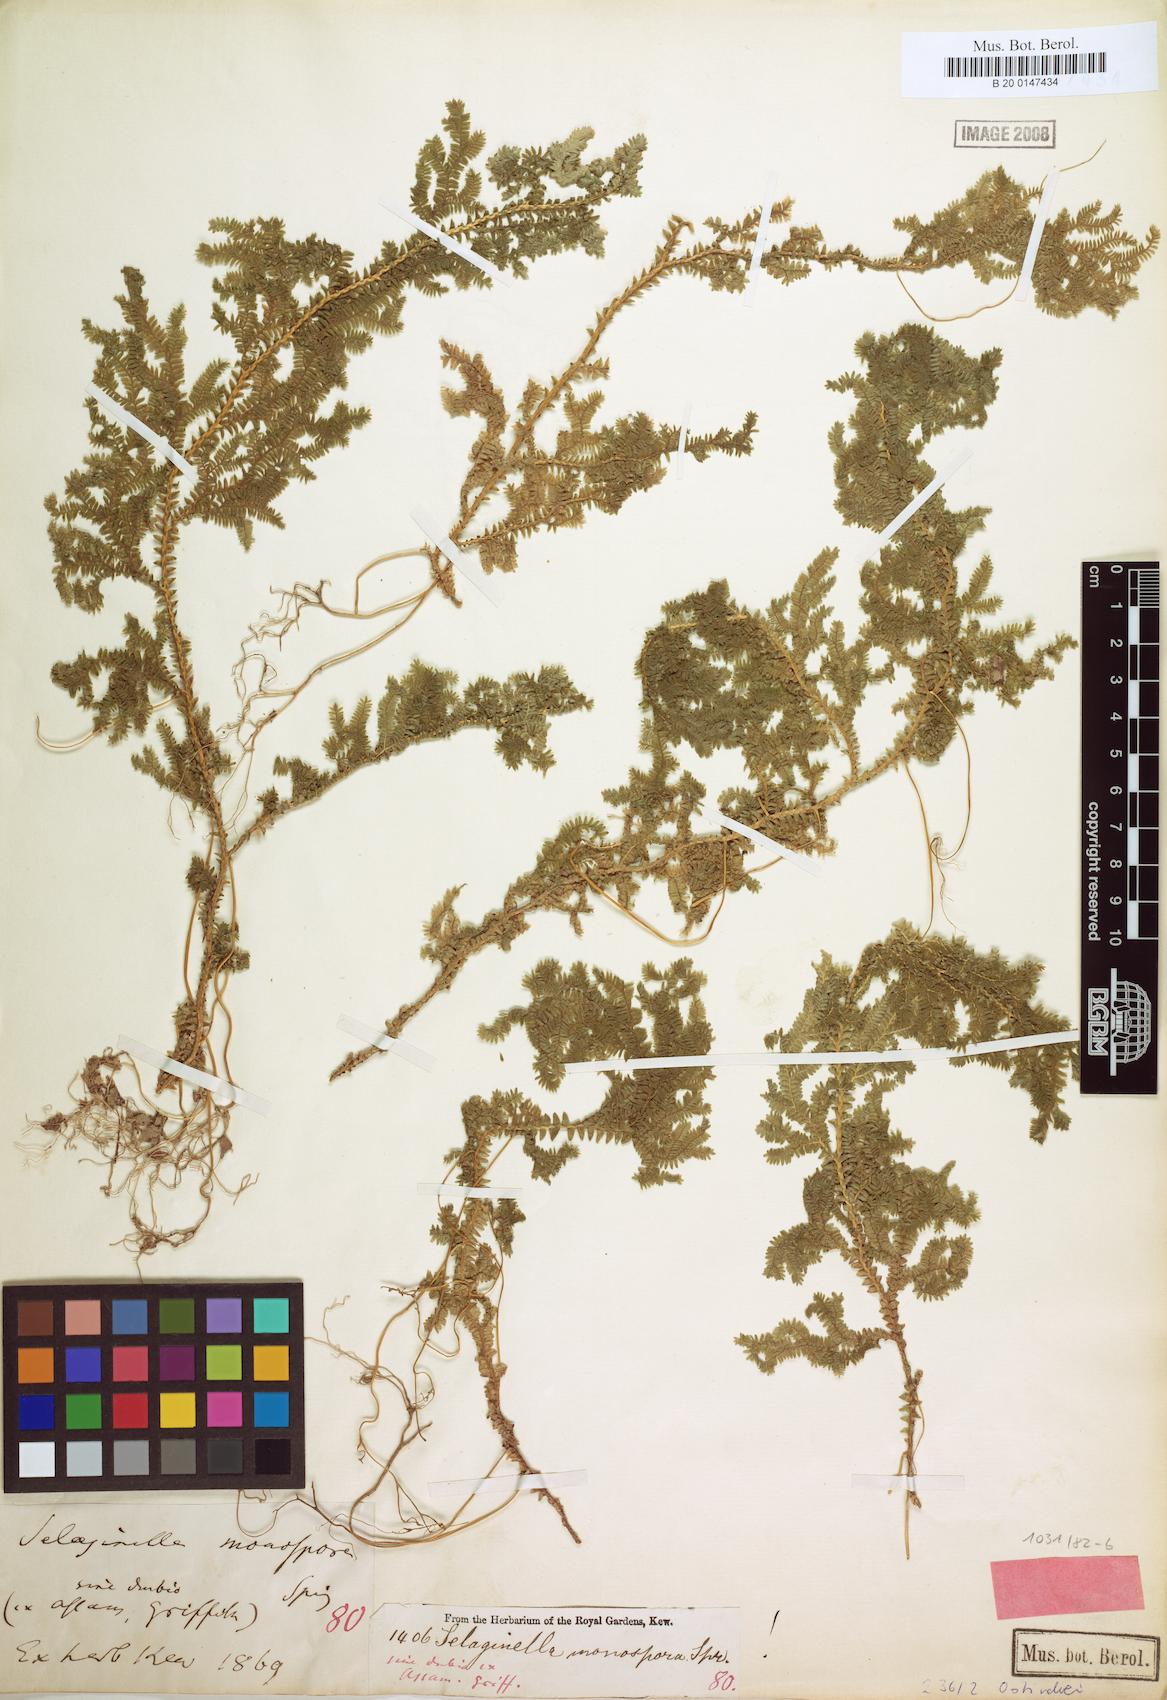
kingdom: Plantae
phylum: Tracheophyta
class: Lycopodiopsida
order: Selaginellales
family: Selaginellaceae
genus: Selaginella
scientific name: Selaginella monospora
